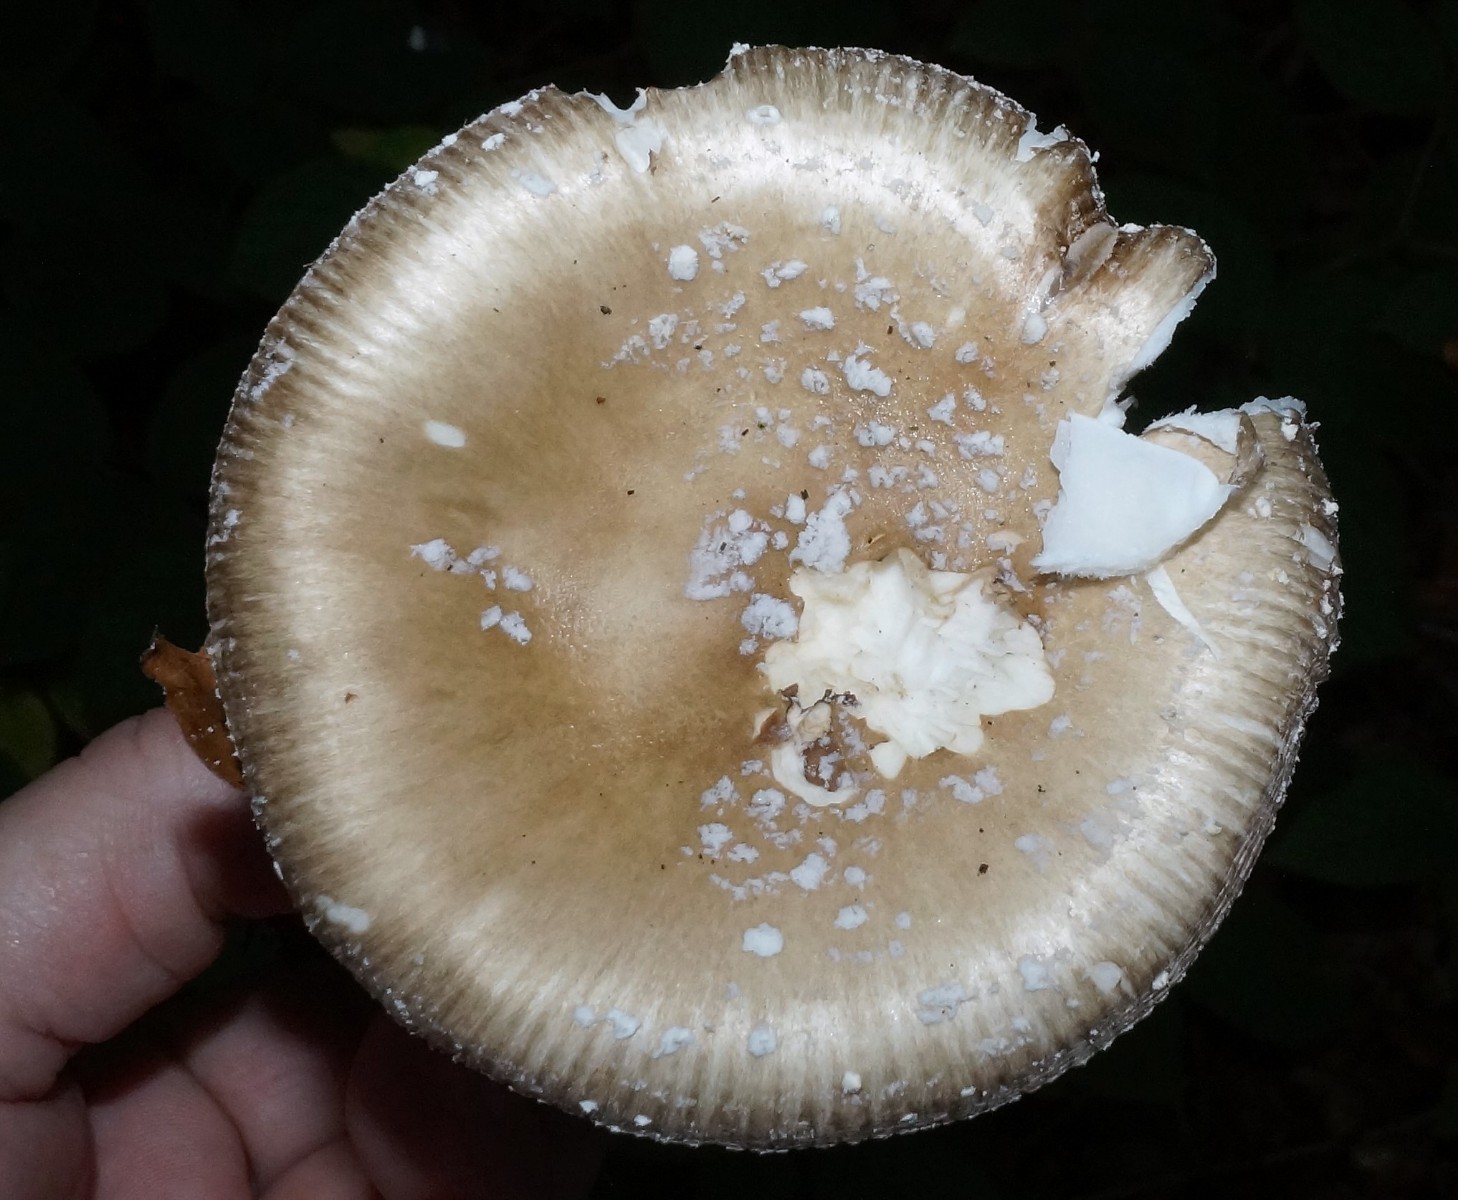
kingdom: Fungi
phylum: Basidiomycota
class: Agaricomycetes
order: Agaricales
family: Amanitaceae
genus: Amanita
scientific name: Amanita pantherina
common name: panter-fluesvamp
